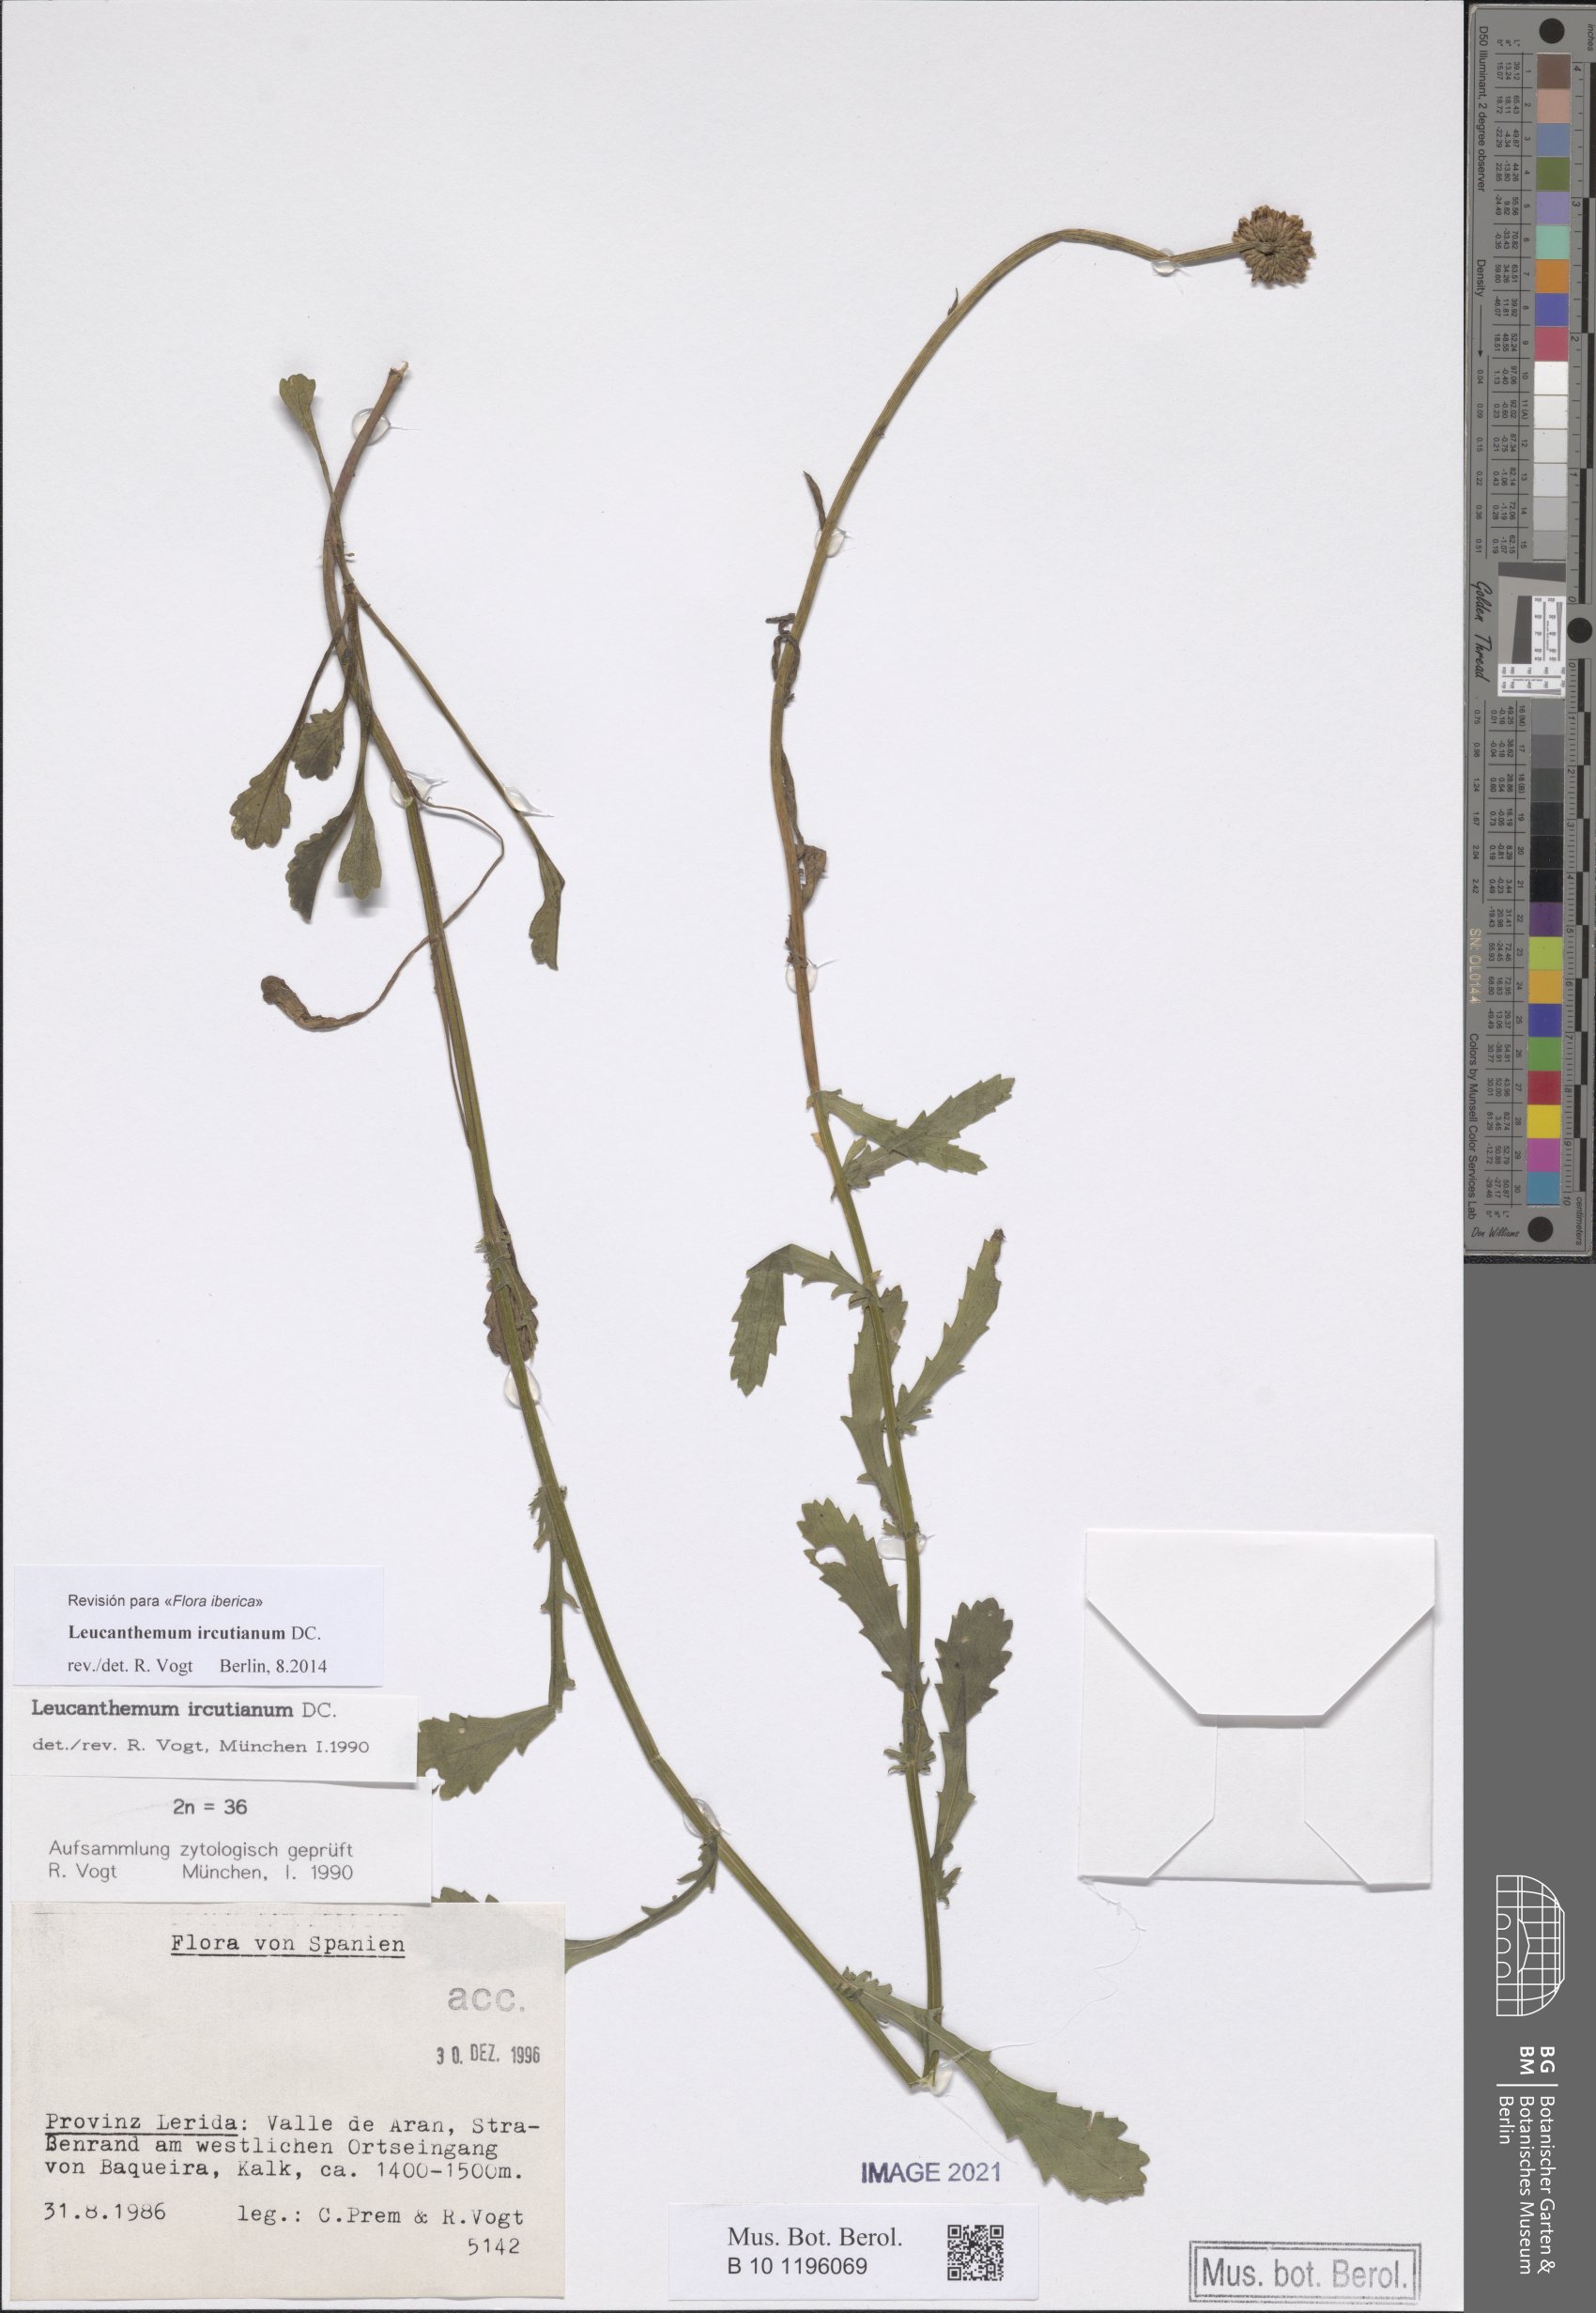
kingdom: Plantae
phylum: Tracheophyta
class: Magnoliopsida
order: Asterales
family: Asteraceae
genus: Leucanthemum
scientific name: Leucanthemum ircutianum
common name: Daisy
